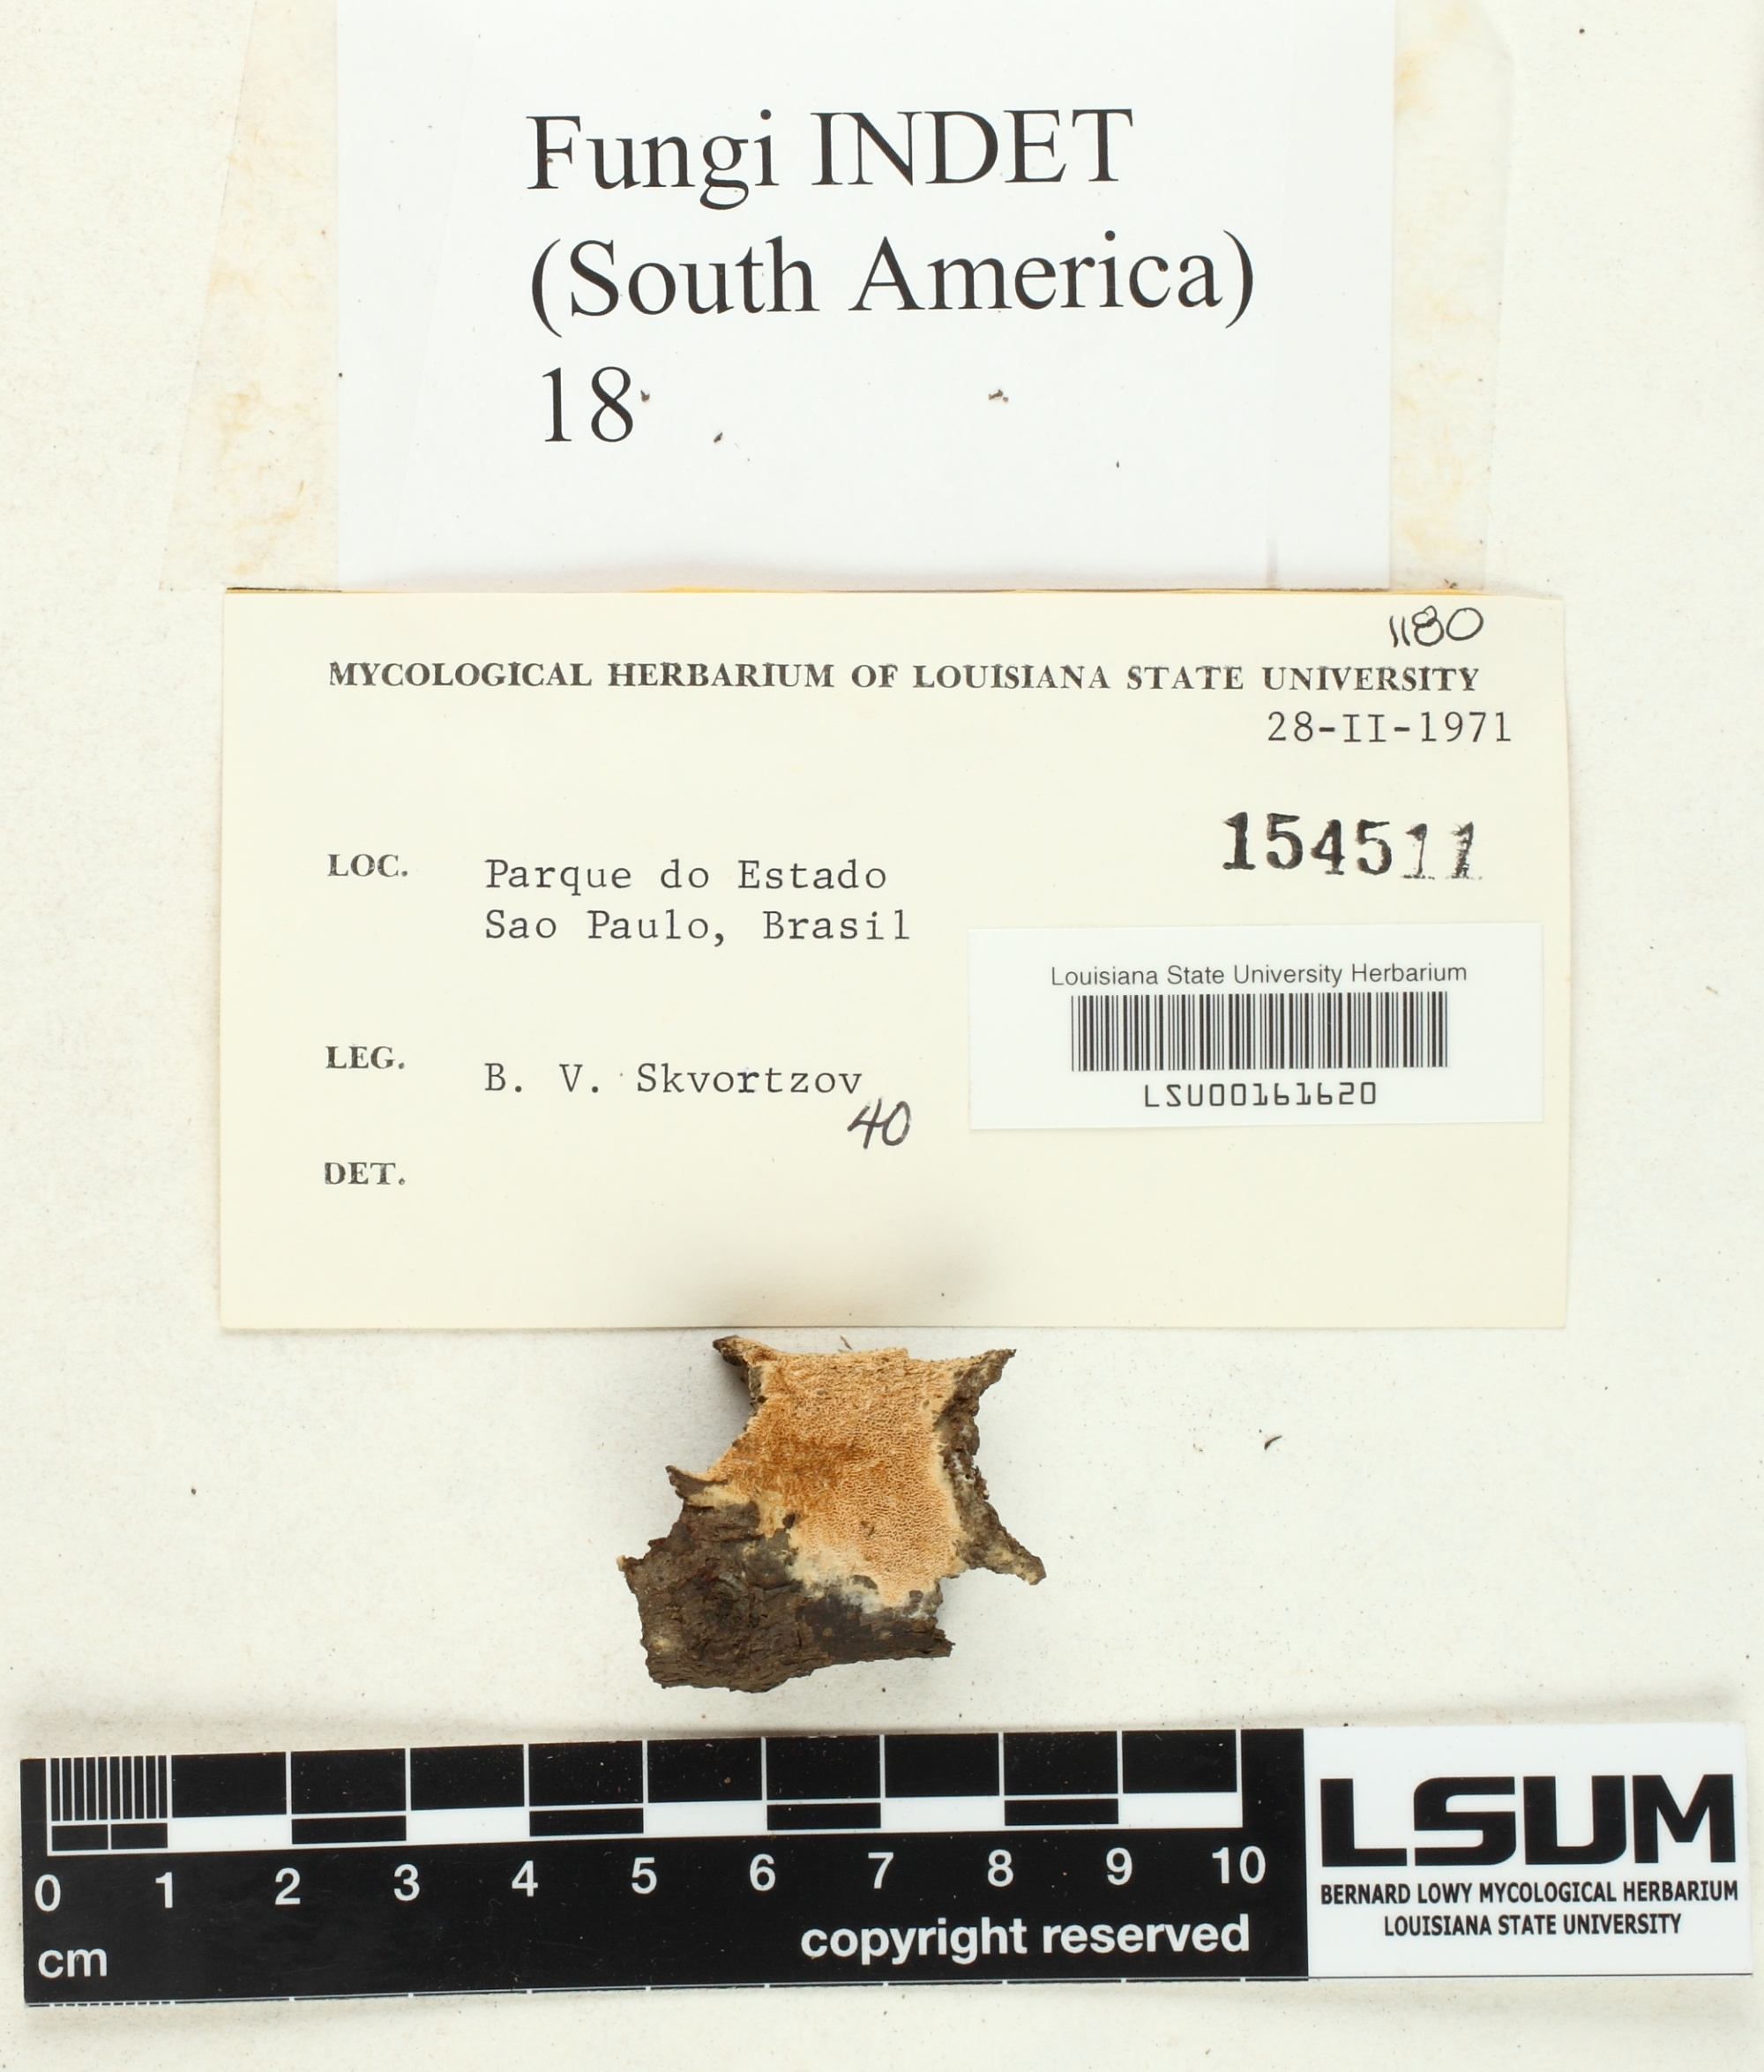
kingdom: Fungi
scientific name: Fungi
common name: Fungi
